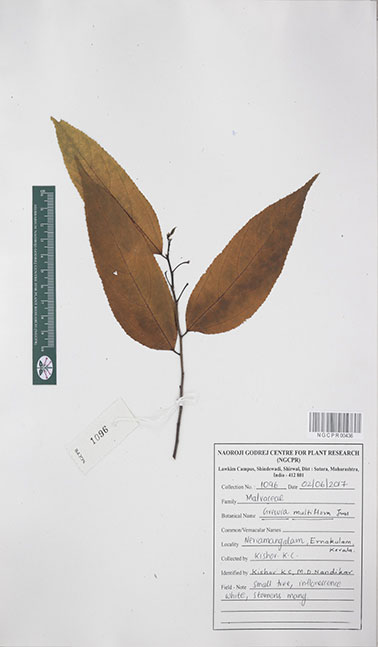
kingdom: Plantae
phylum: Tracheophyta
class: Magnoliopsida
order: Malvales
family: Malvaceae
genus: Grewia
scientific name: Grewia multiflora
